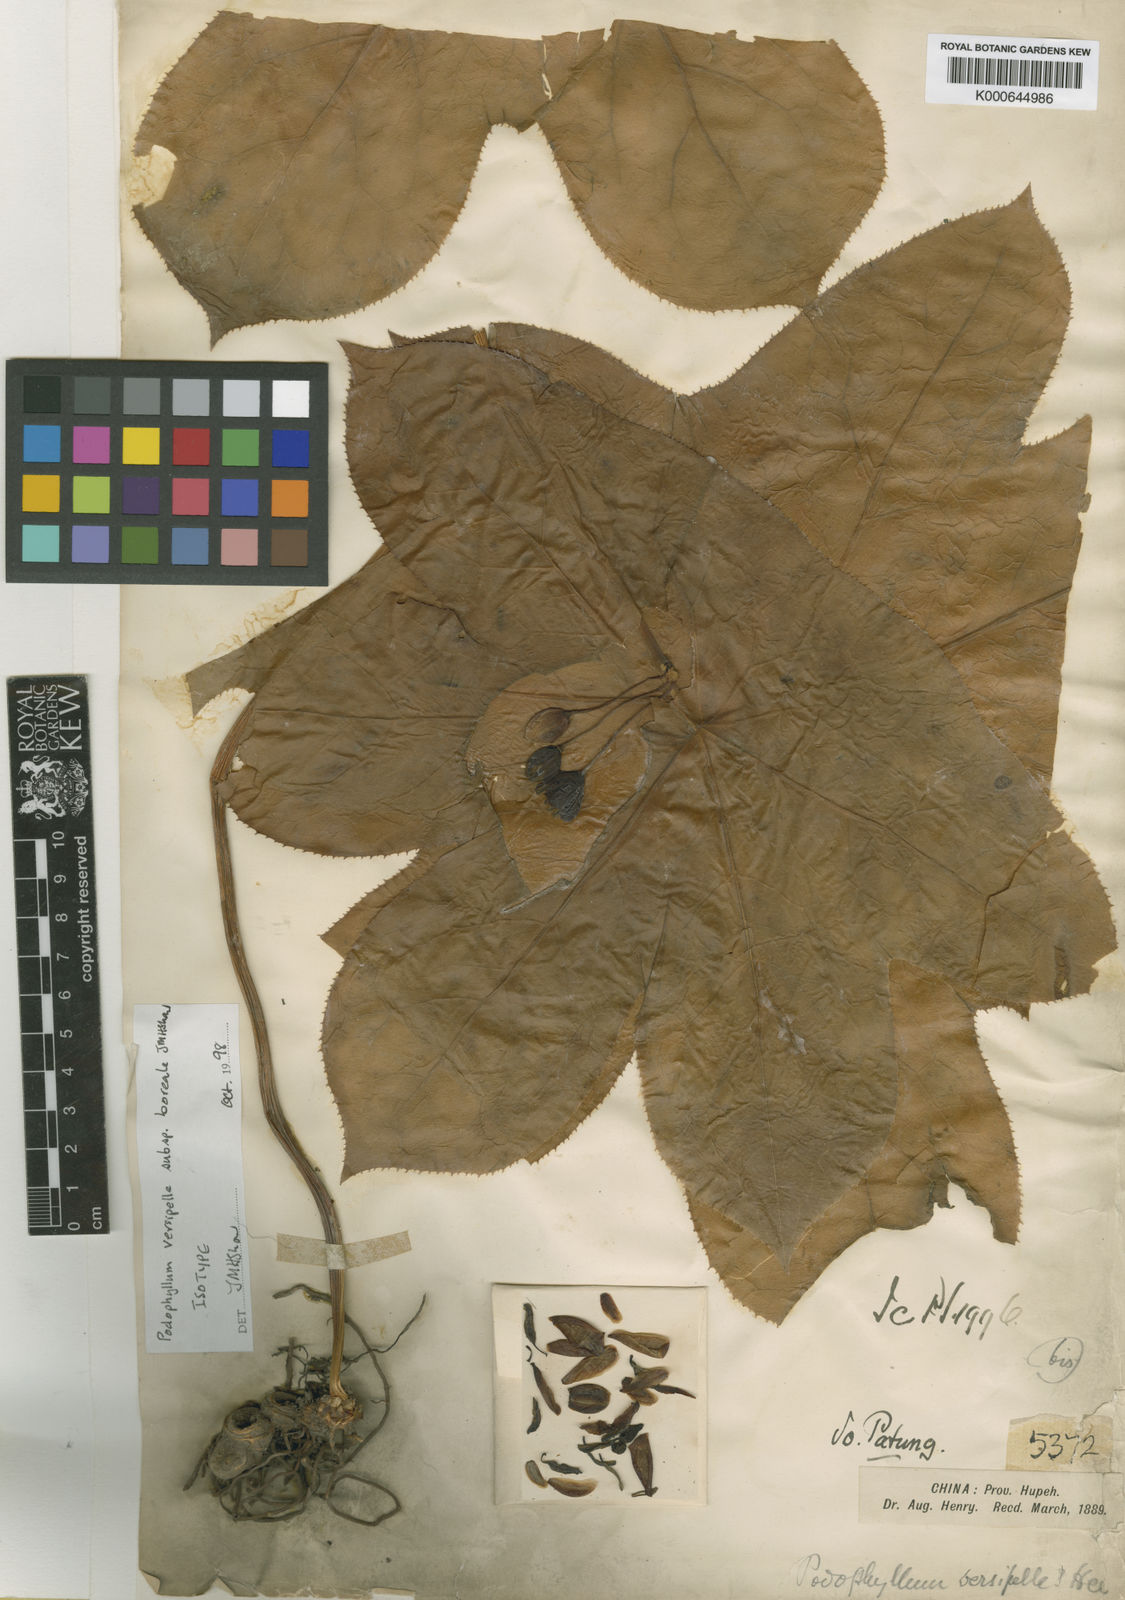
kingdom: Plantae
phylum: Tracheophyta
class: Magnoliopsida
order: Ranunculales
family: Berberidaceae
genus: Dysosma
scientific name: Dysosma versipellis
